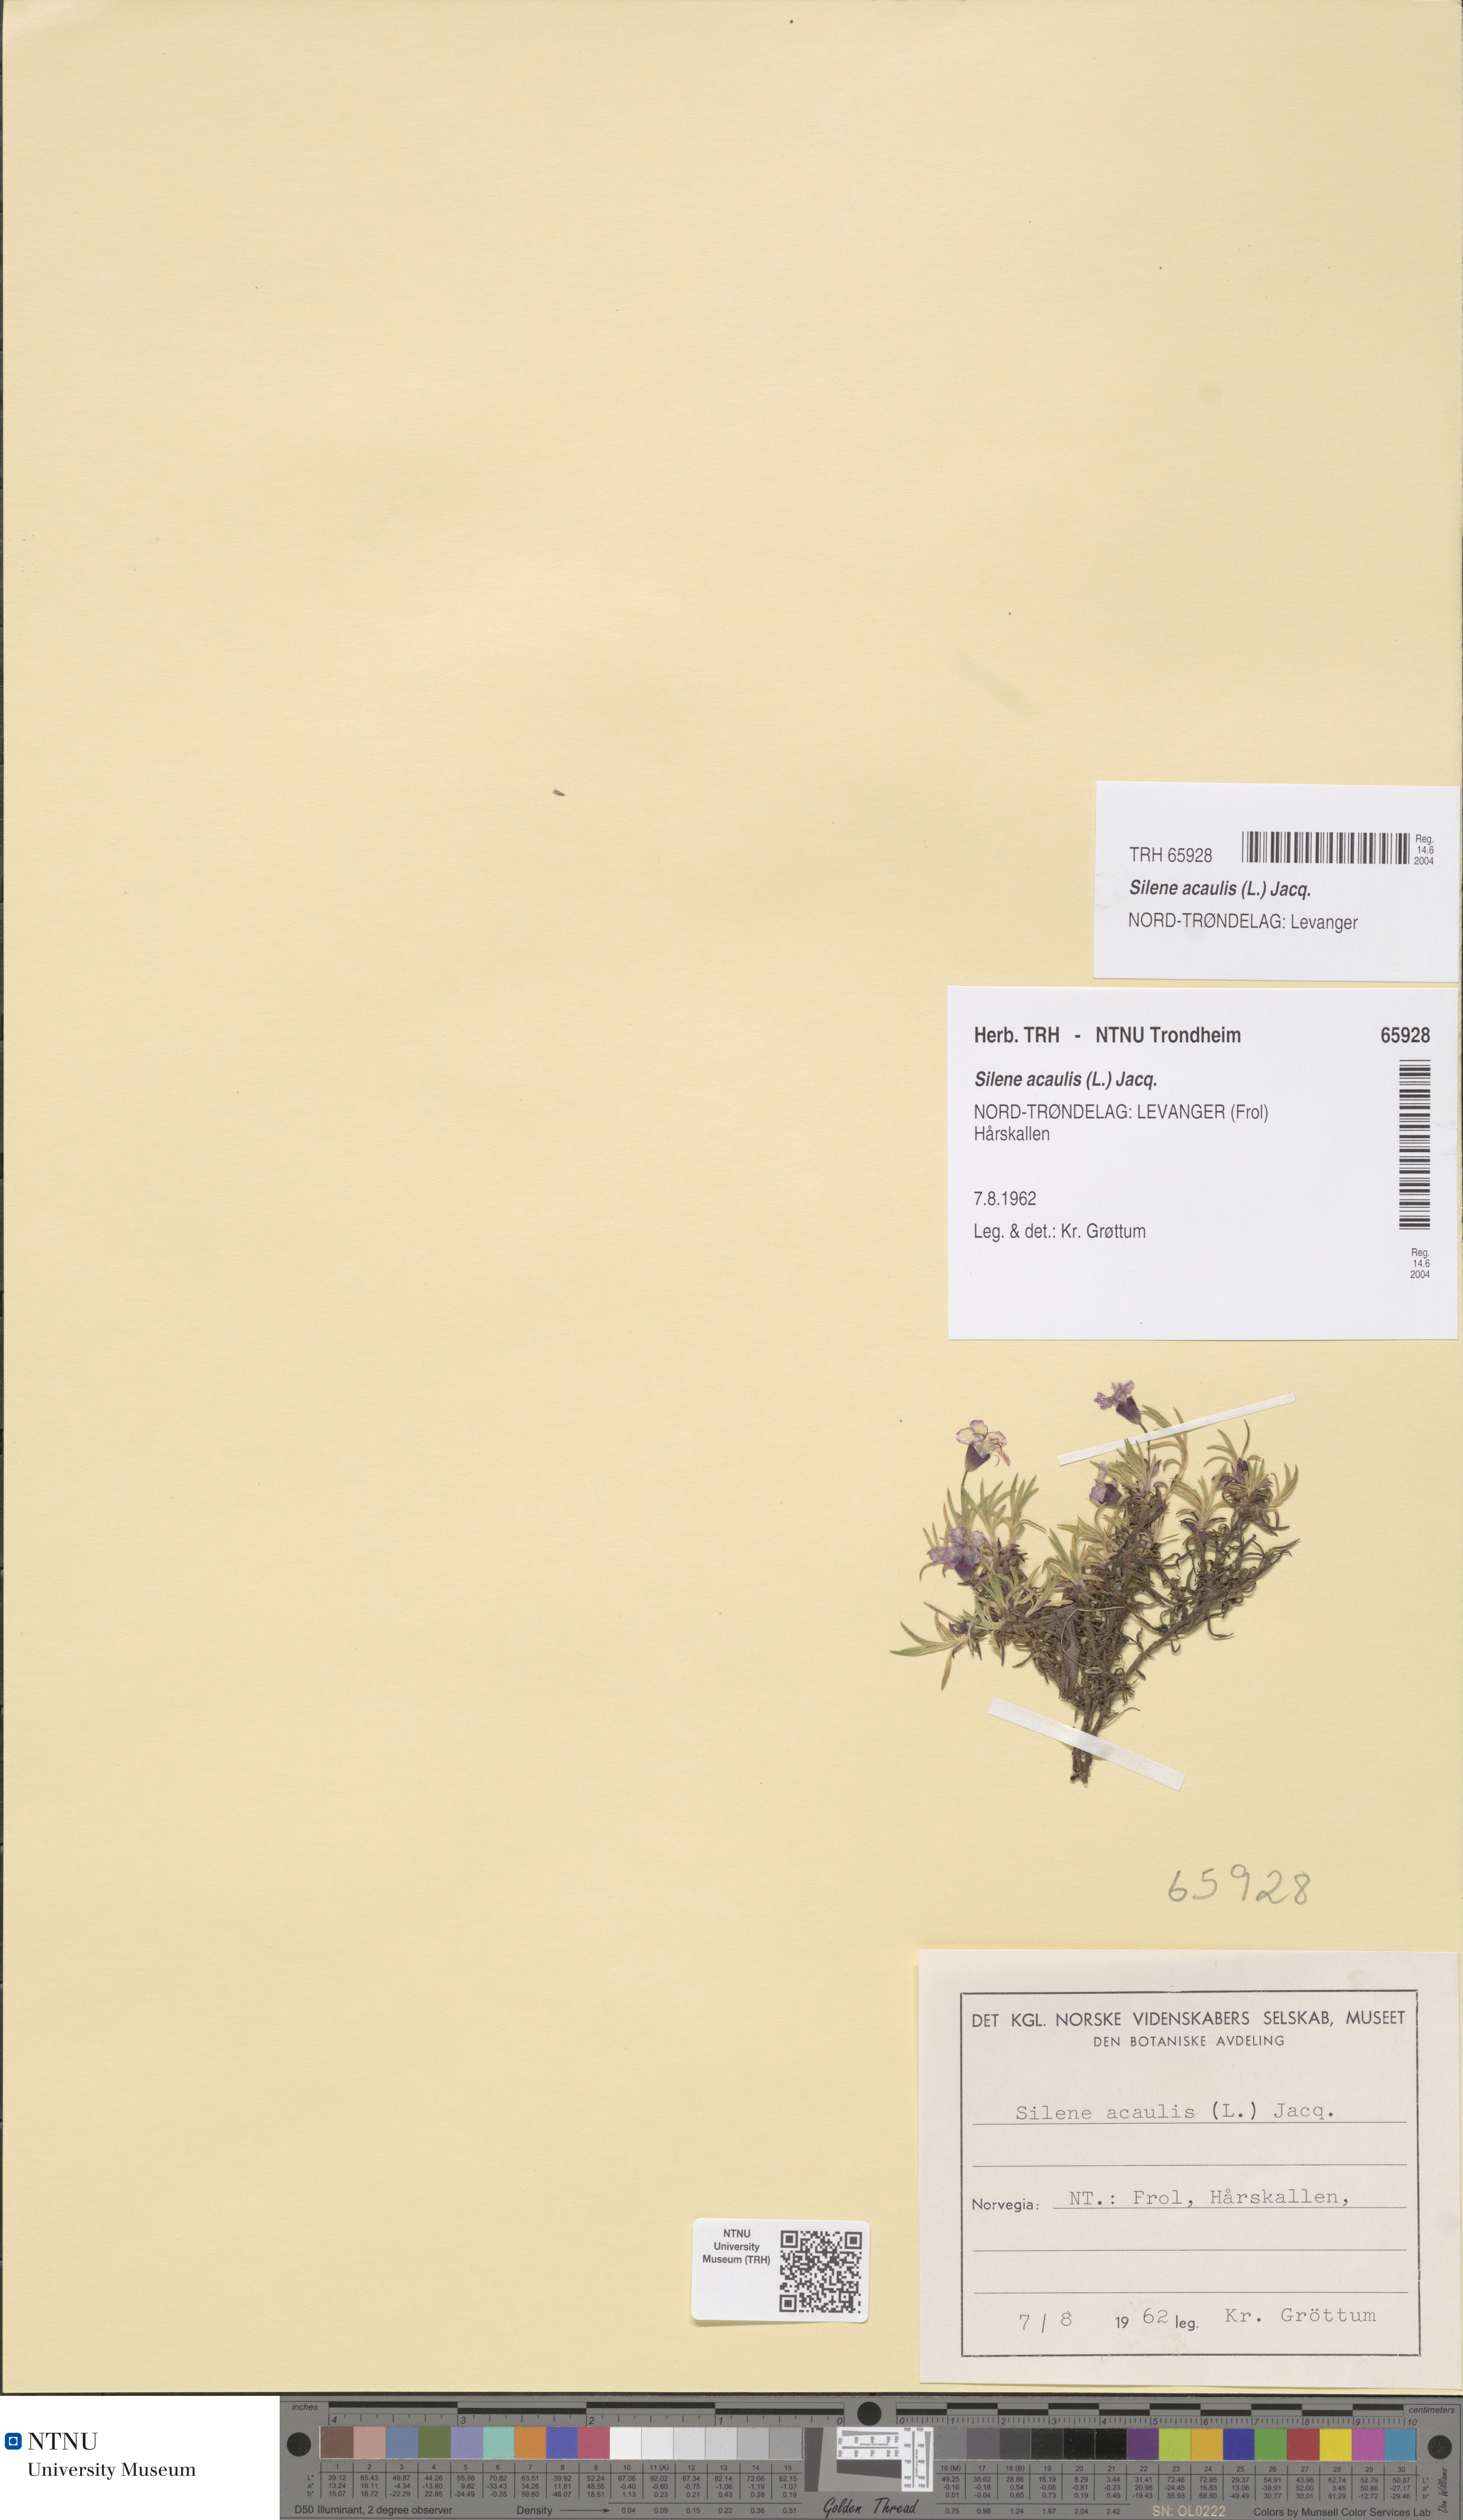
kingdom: Plantae
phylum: Tracheophyta
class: Magnoliopsida
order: Caryophyllales
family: Caryophyllaceae
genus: Silene
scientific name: Silene acaulis
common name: Moss campion
